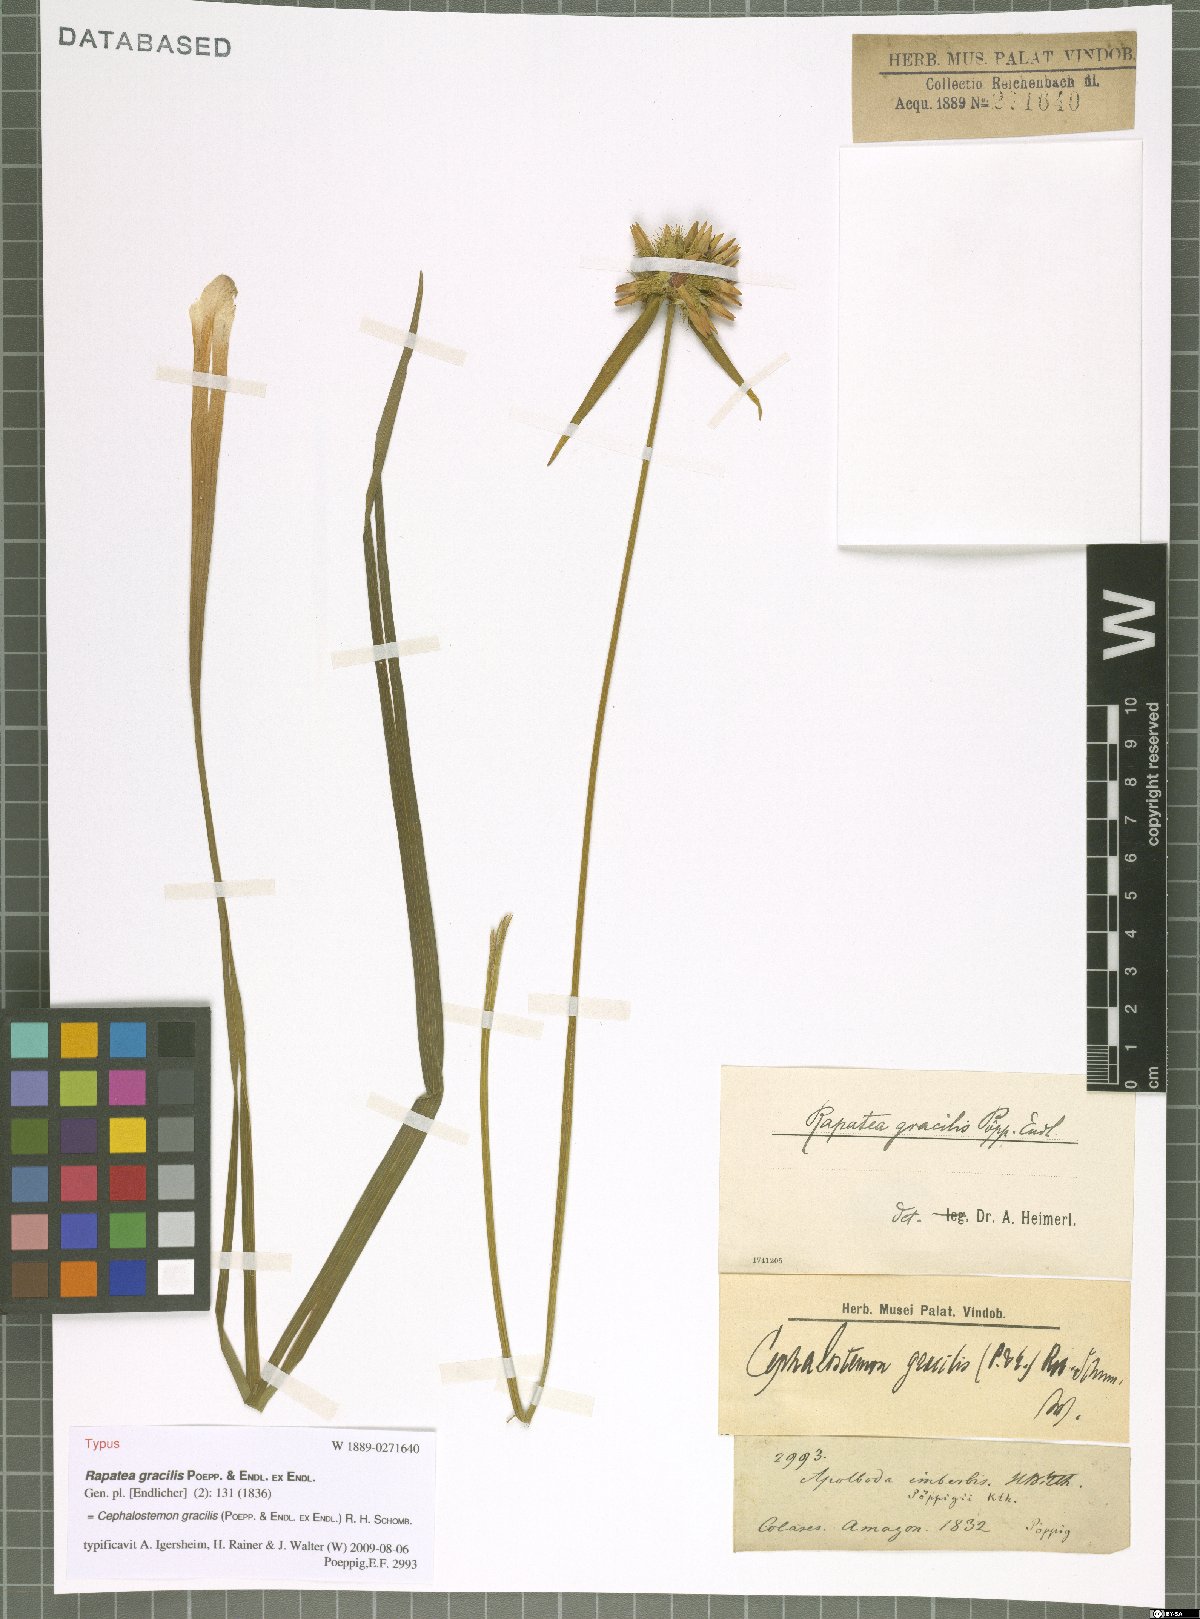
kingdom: Plantae
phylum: Tracheophyta
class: Liliopsida
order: Poales
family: Rapateaceae
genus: Cephalostemon
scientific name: Cephalostemon gracilis
